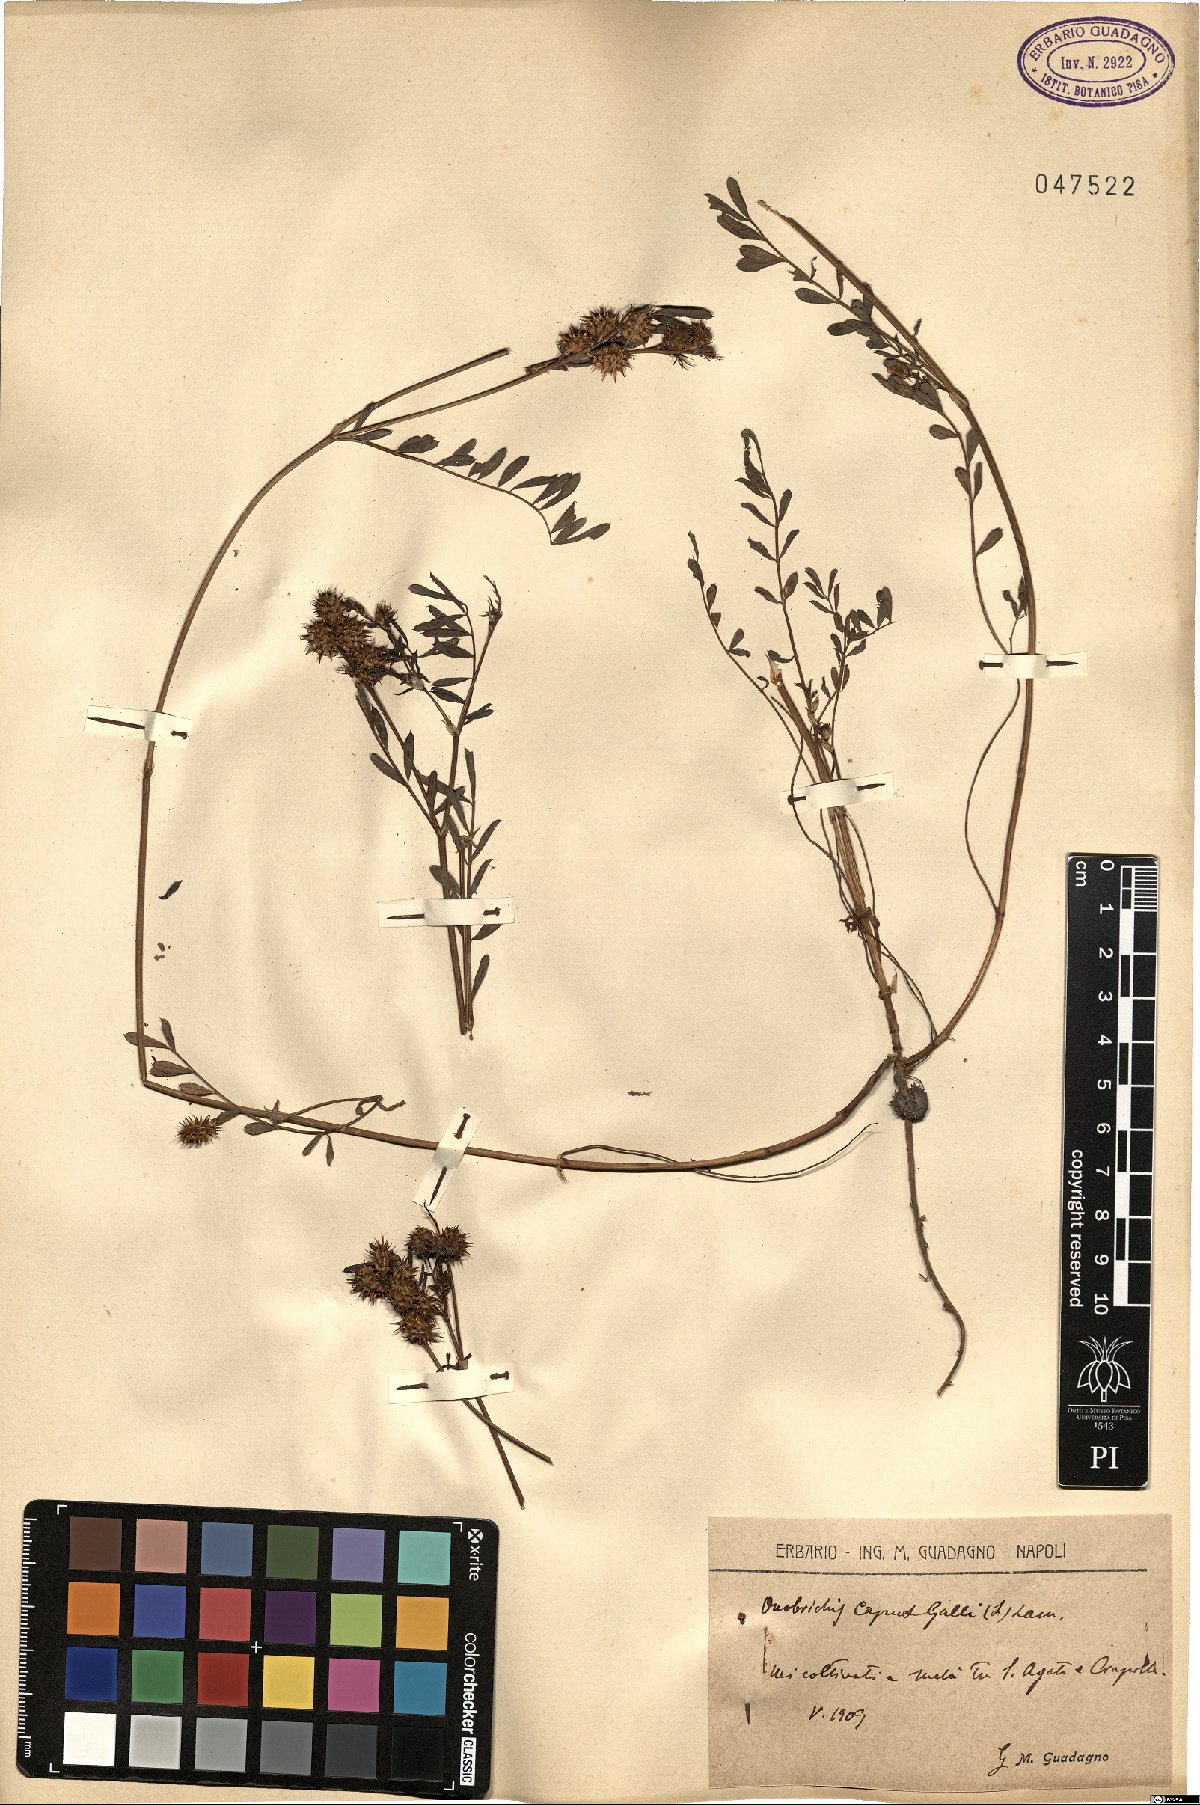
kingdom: Plantae
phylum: Tracheophyta
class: Magnoliopsida
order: Fabales
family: Fabaceae
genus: Onobrychis
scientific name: Onobrychis caput-galli
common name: Cockscomb sainfoin
